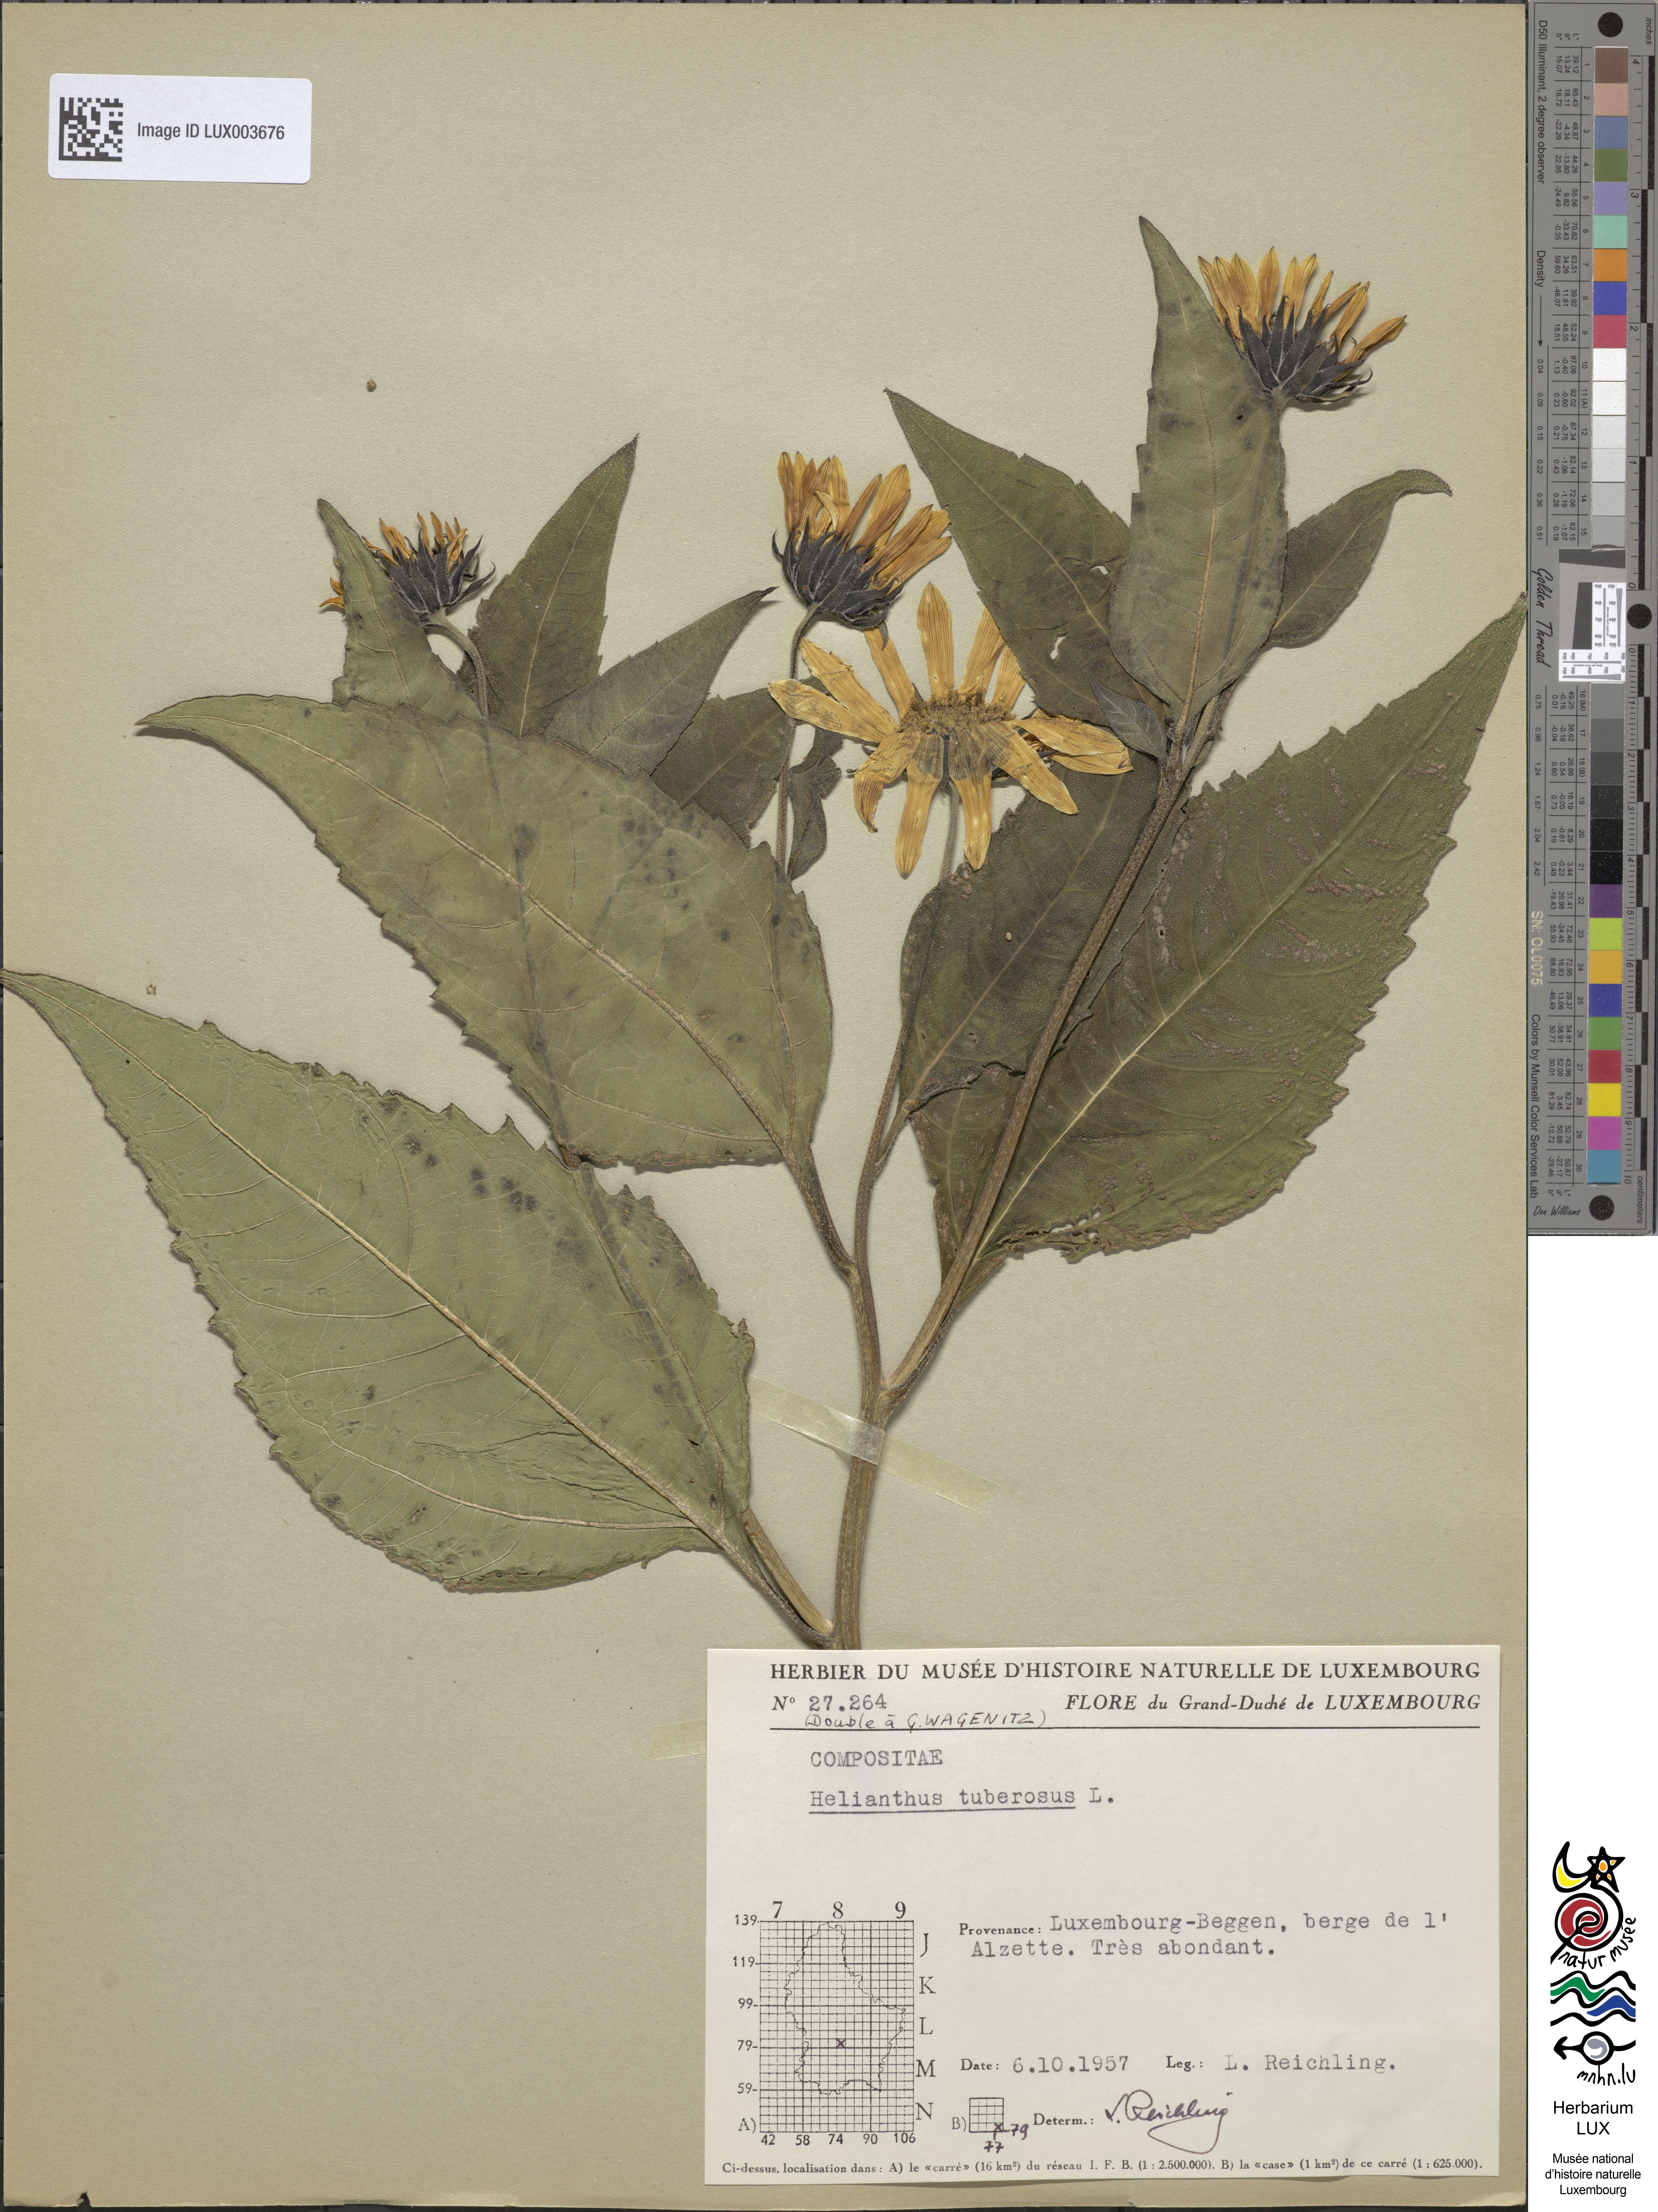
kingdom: Plantae
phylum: Tracheophyta
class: Magnoliopsida
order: Asterales
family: Asteraceae
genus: Helianthus
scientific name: Helianthus tuberosus
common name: Jerusalem artichoke
